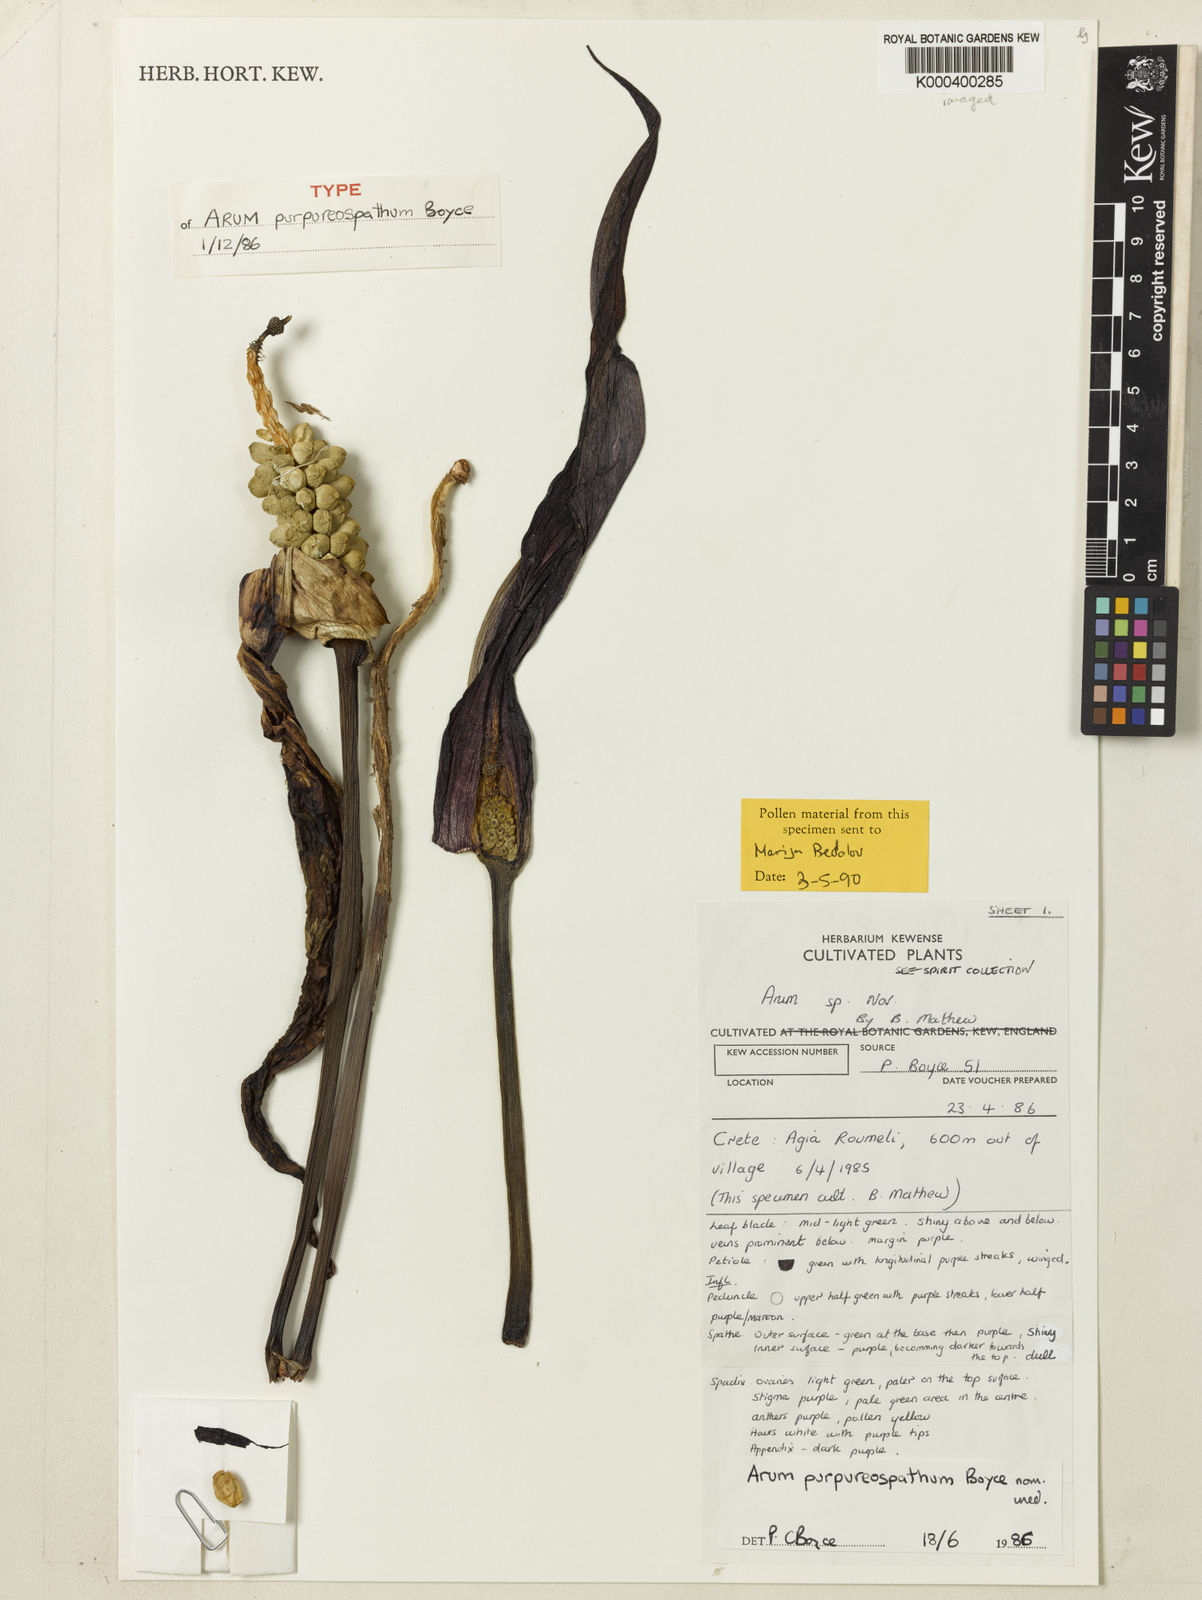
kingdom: Plantae
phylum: Tracheophyta
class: Liliopsida
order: Alismatales
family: Araceae
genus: Arum
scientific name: Arum purpureospathum
